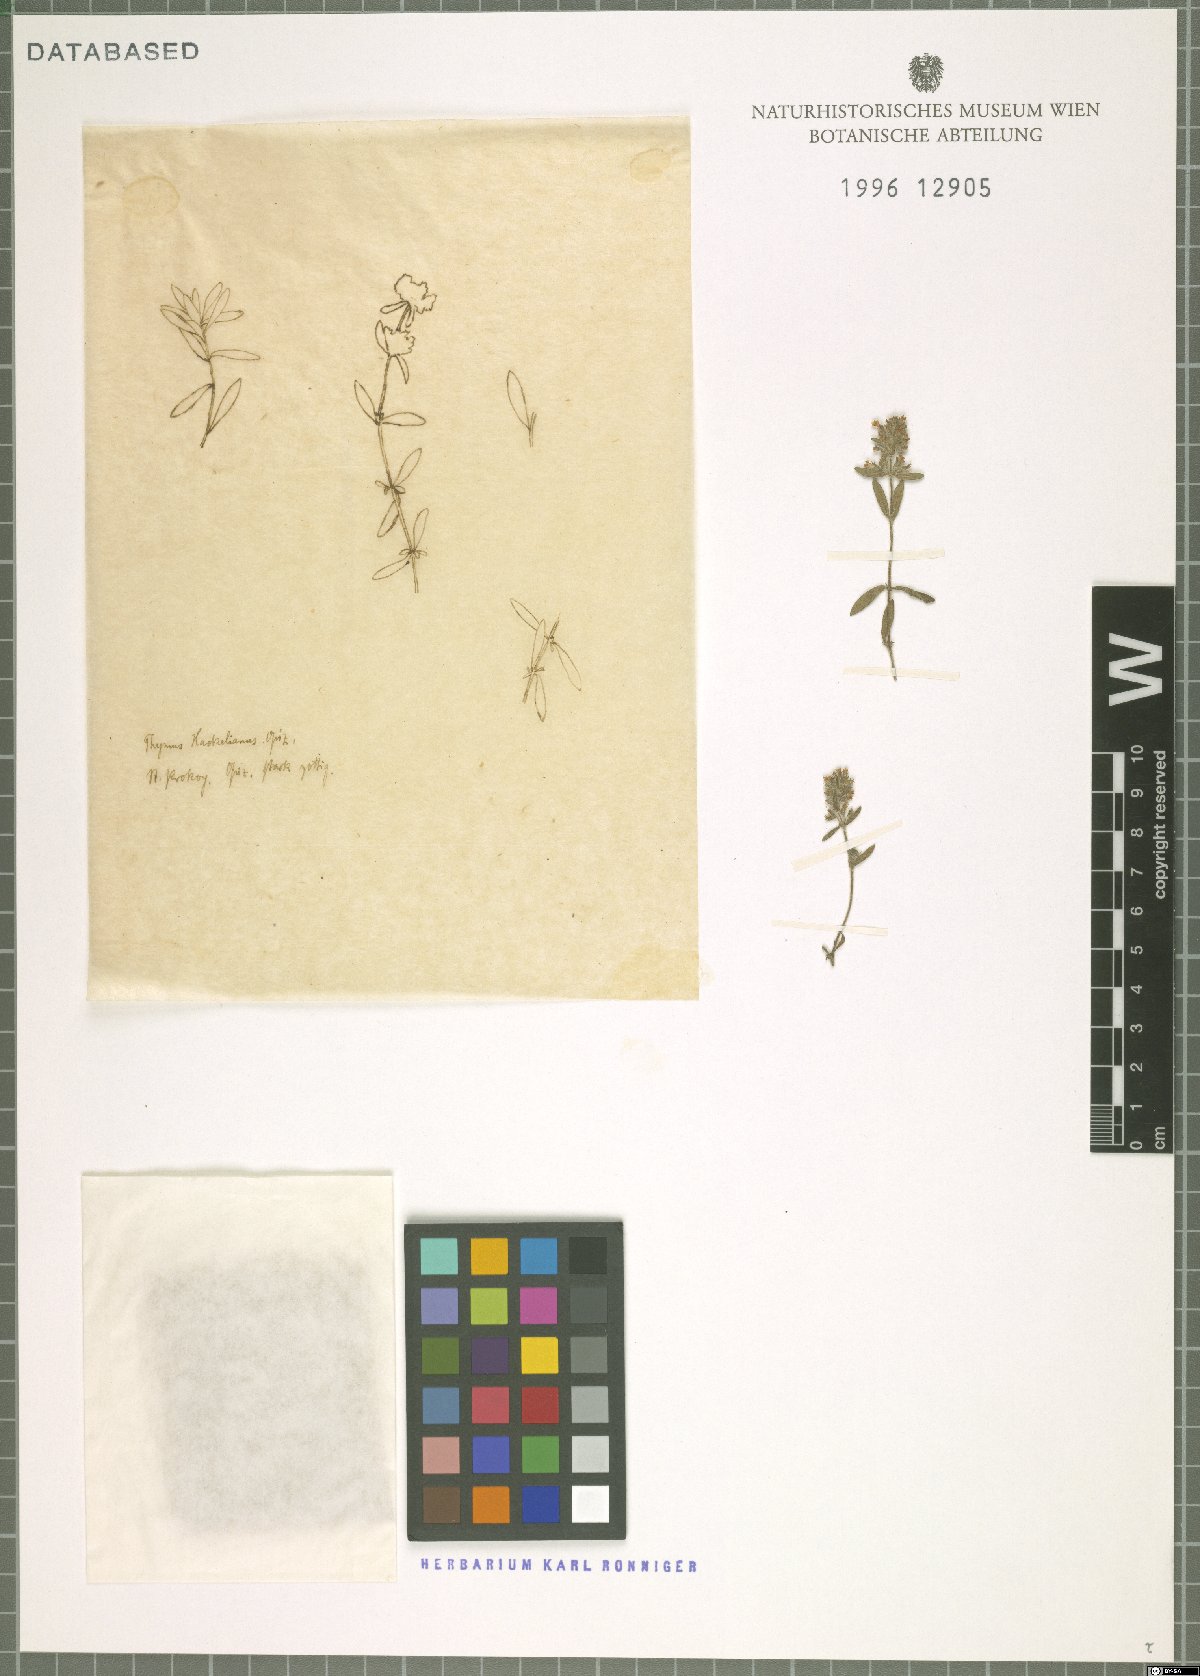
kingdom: Plantae
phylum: Tracheophyta
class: Magnoliopsida
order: Lamiales
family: Lamiaceae
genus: Thymus
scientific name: Thymus
